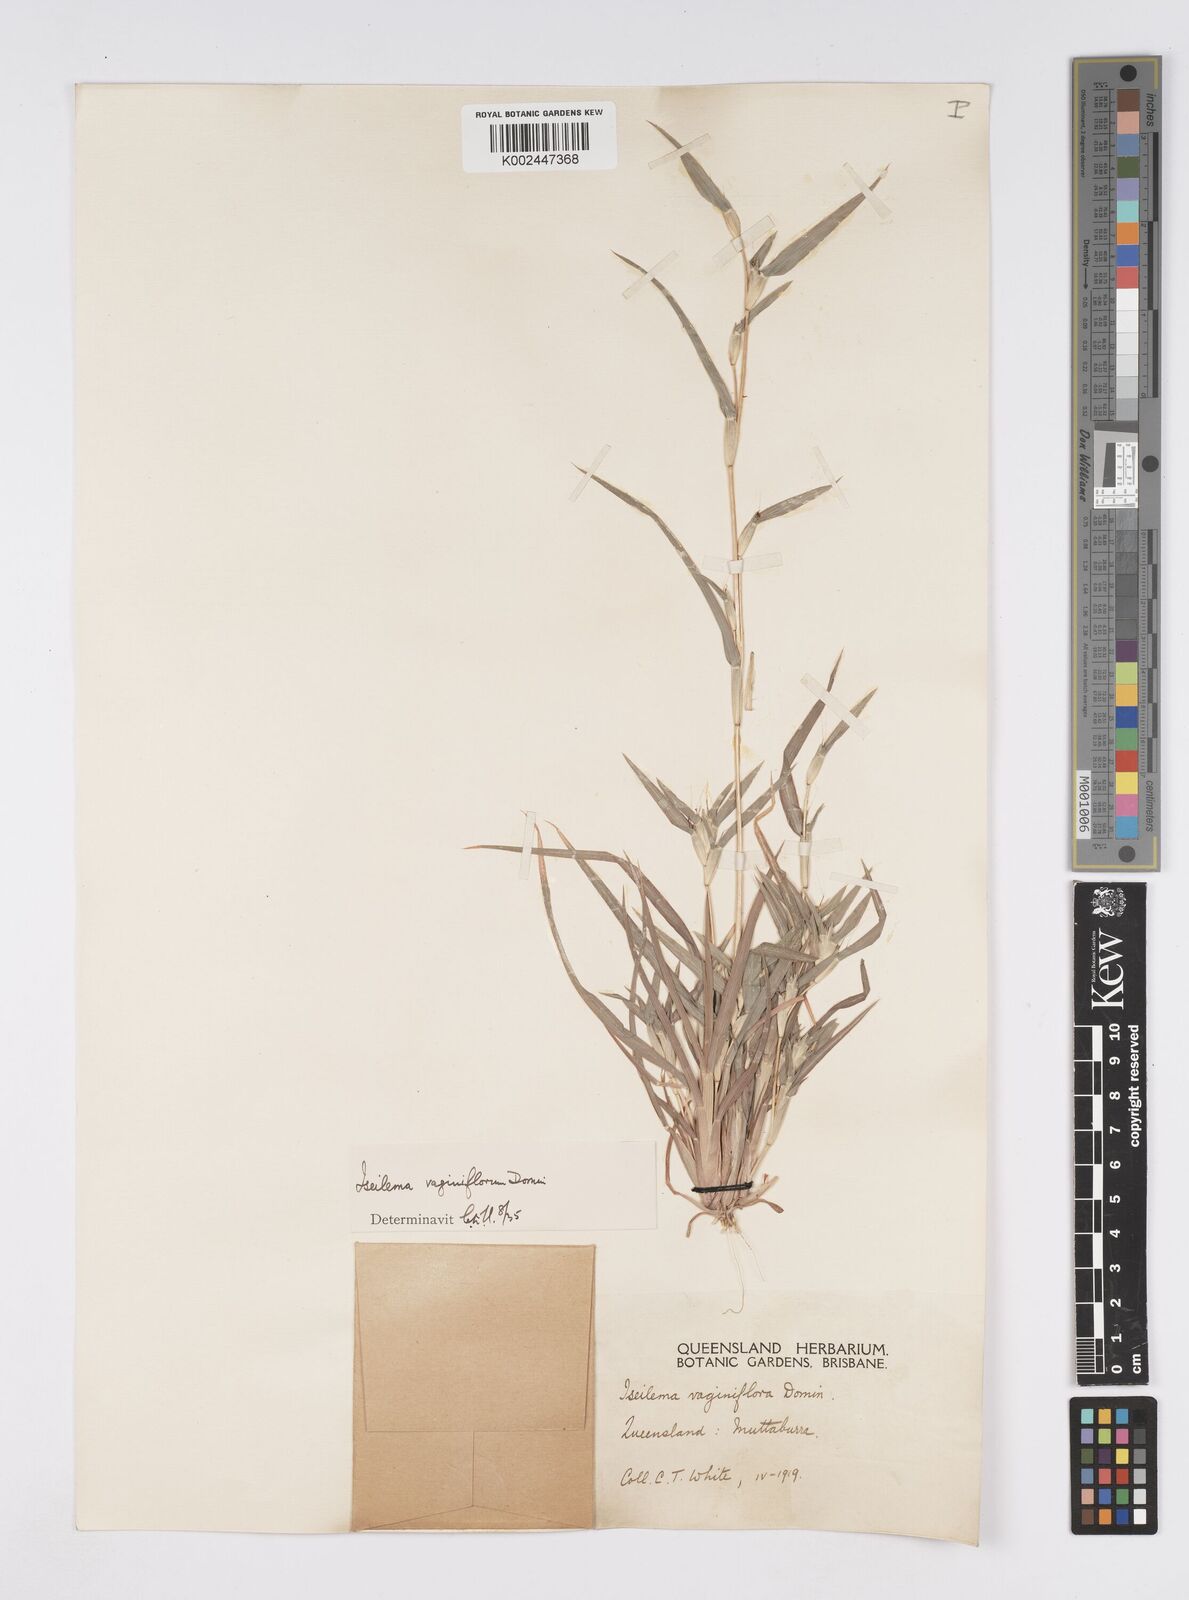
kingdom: Plantae
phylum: Tracheophyta
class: Liliopsida
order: Poales
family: Poaceae
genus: Iseilema
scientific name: Iseilema vaginiflorum
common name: Red flinders grass
